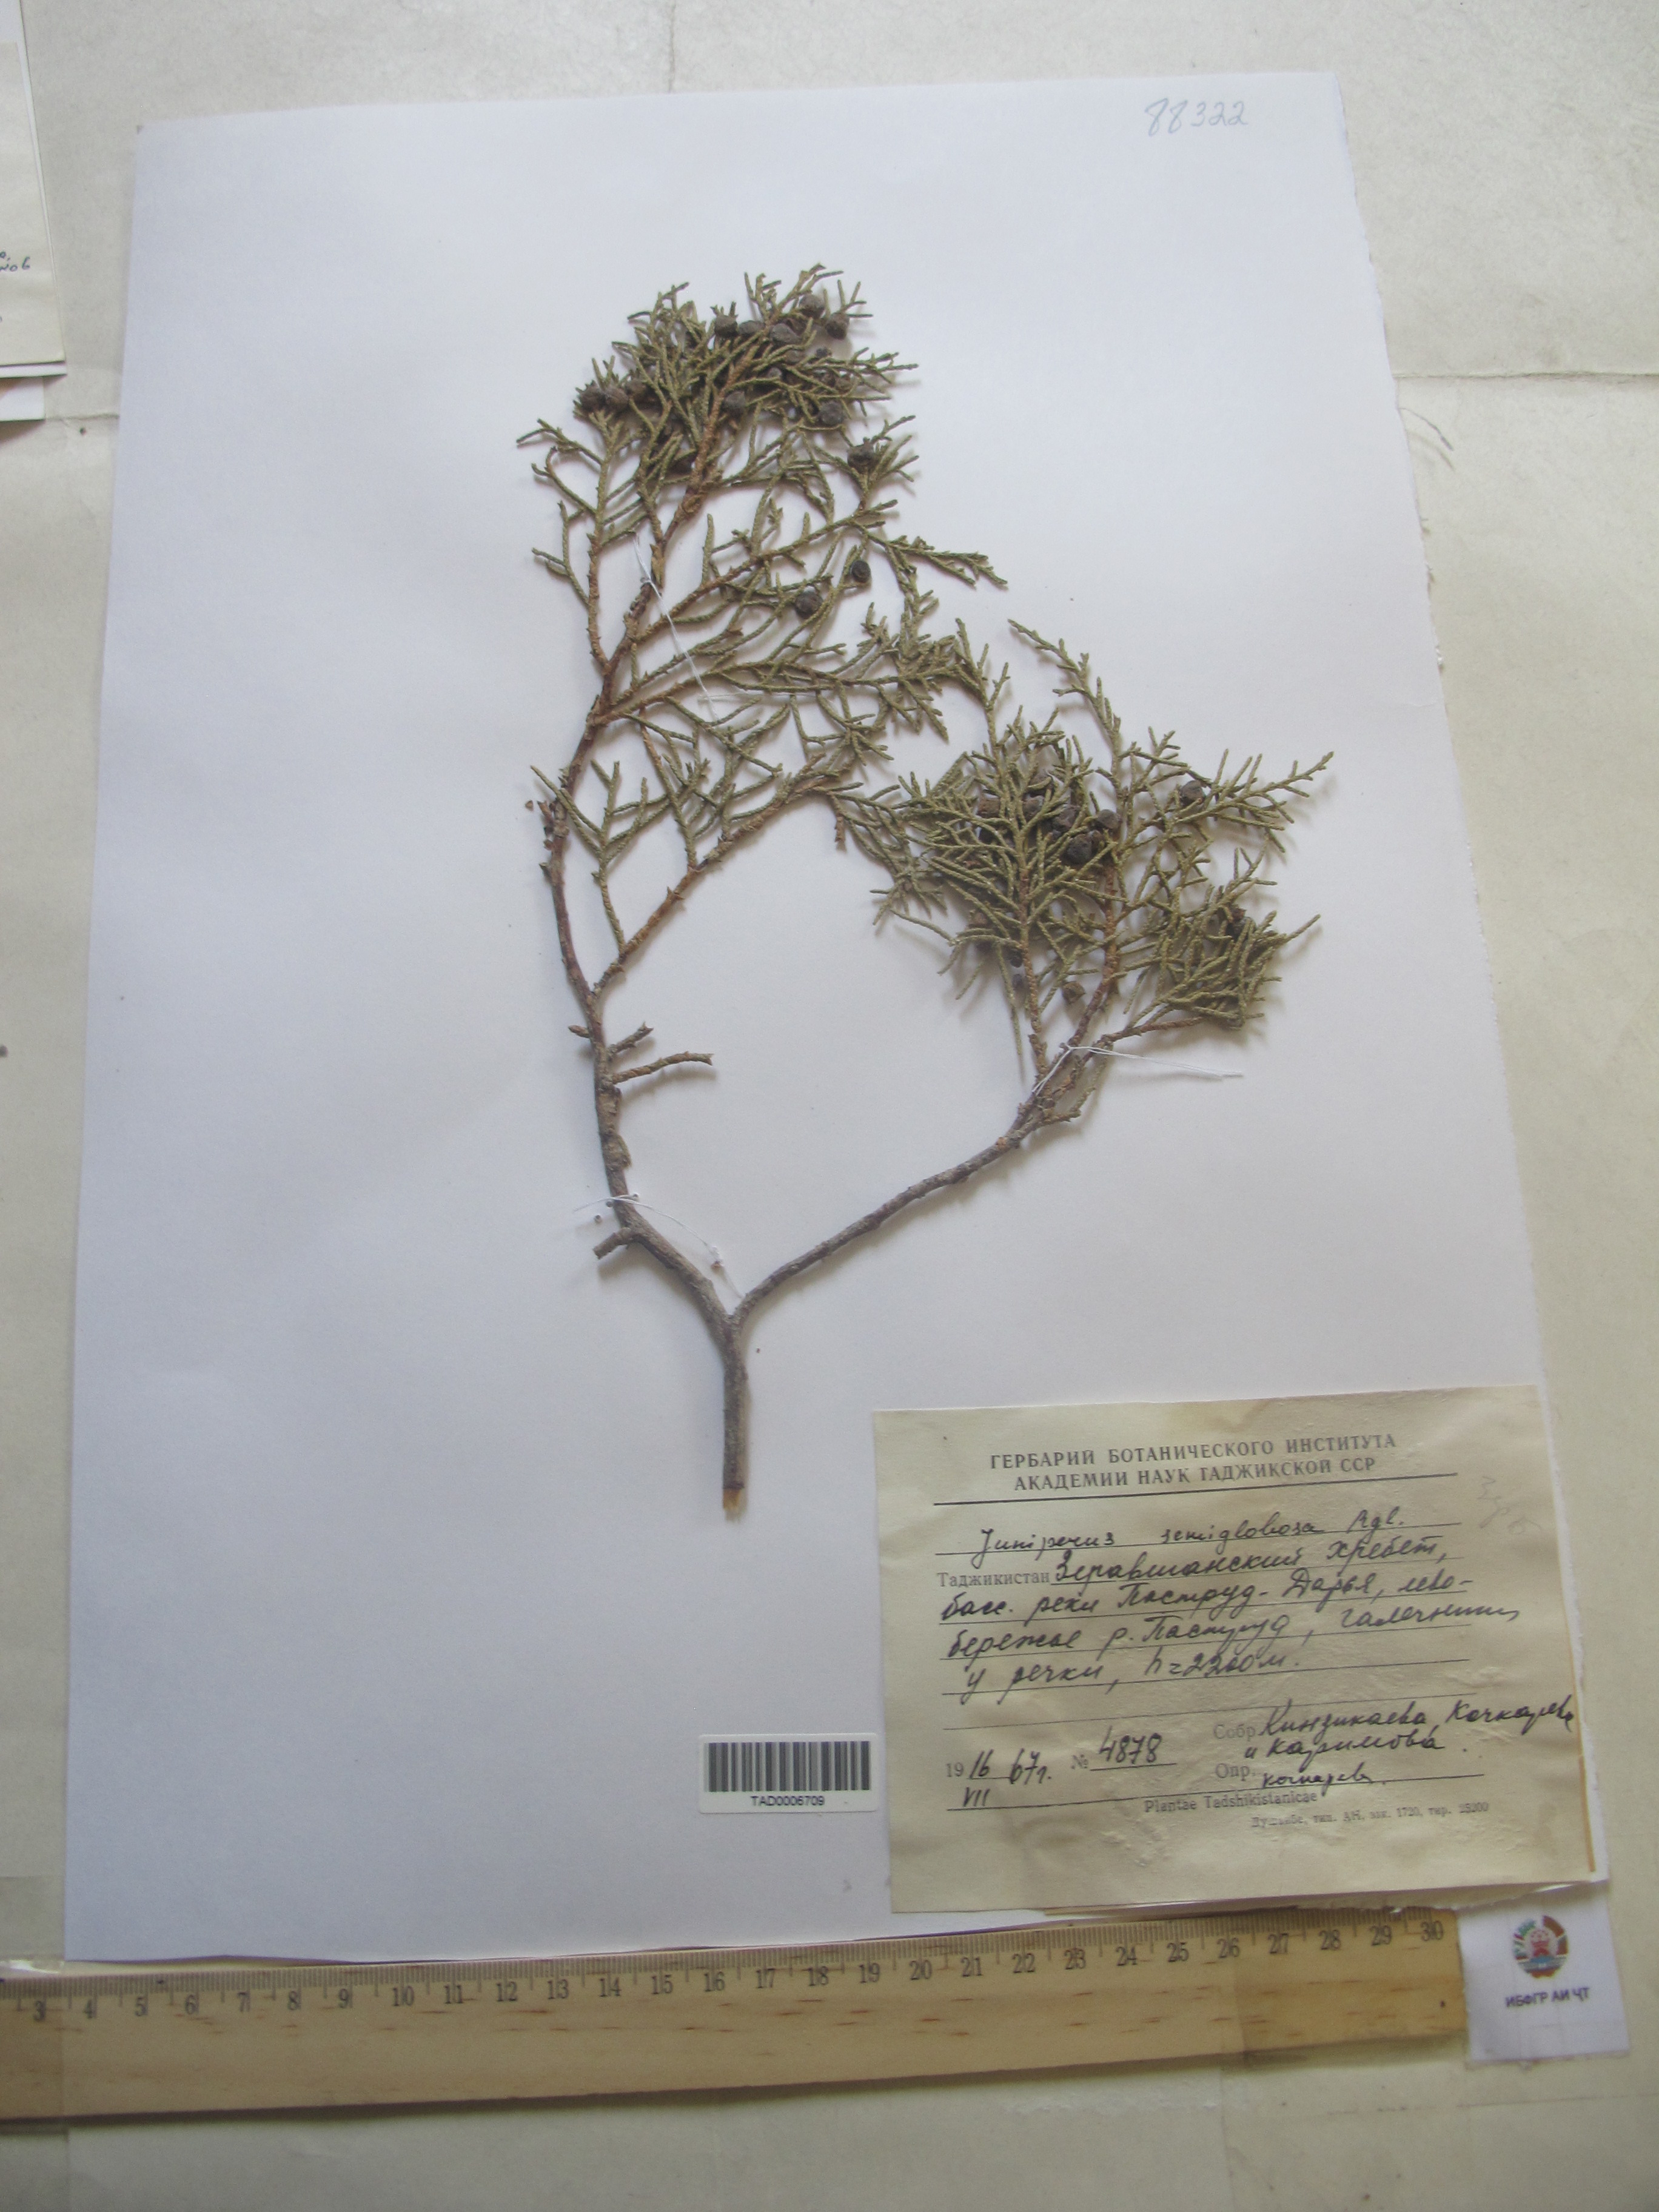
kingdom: Plantae
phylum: Tracheophyta
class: Pinopsida
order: Pinales
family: Cupressaceae
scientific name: Cupressaceae
